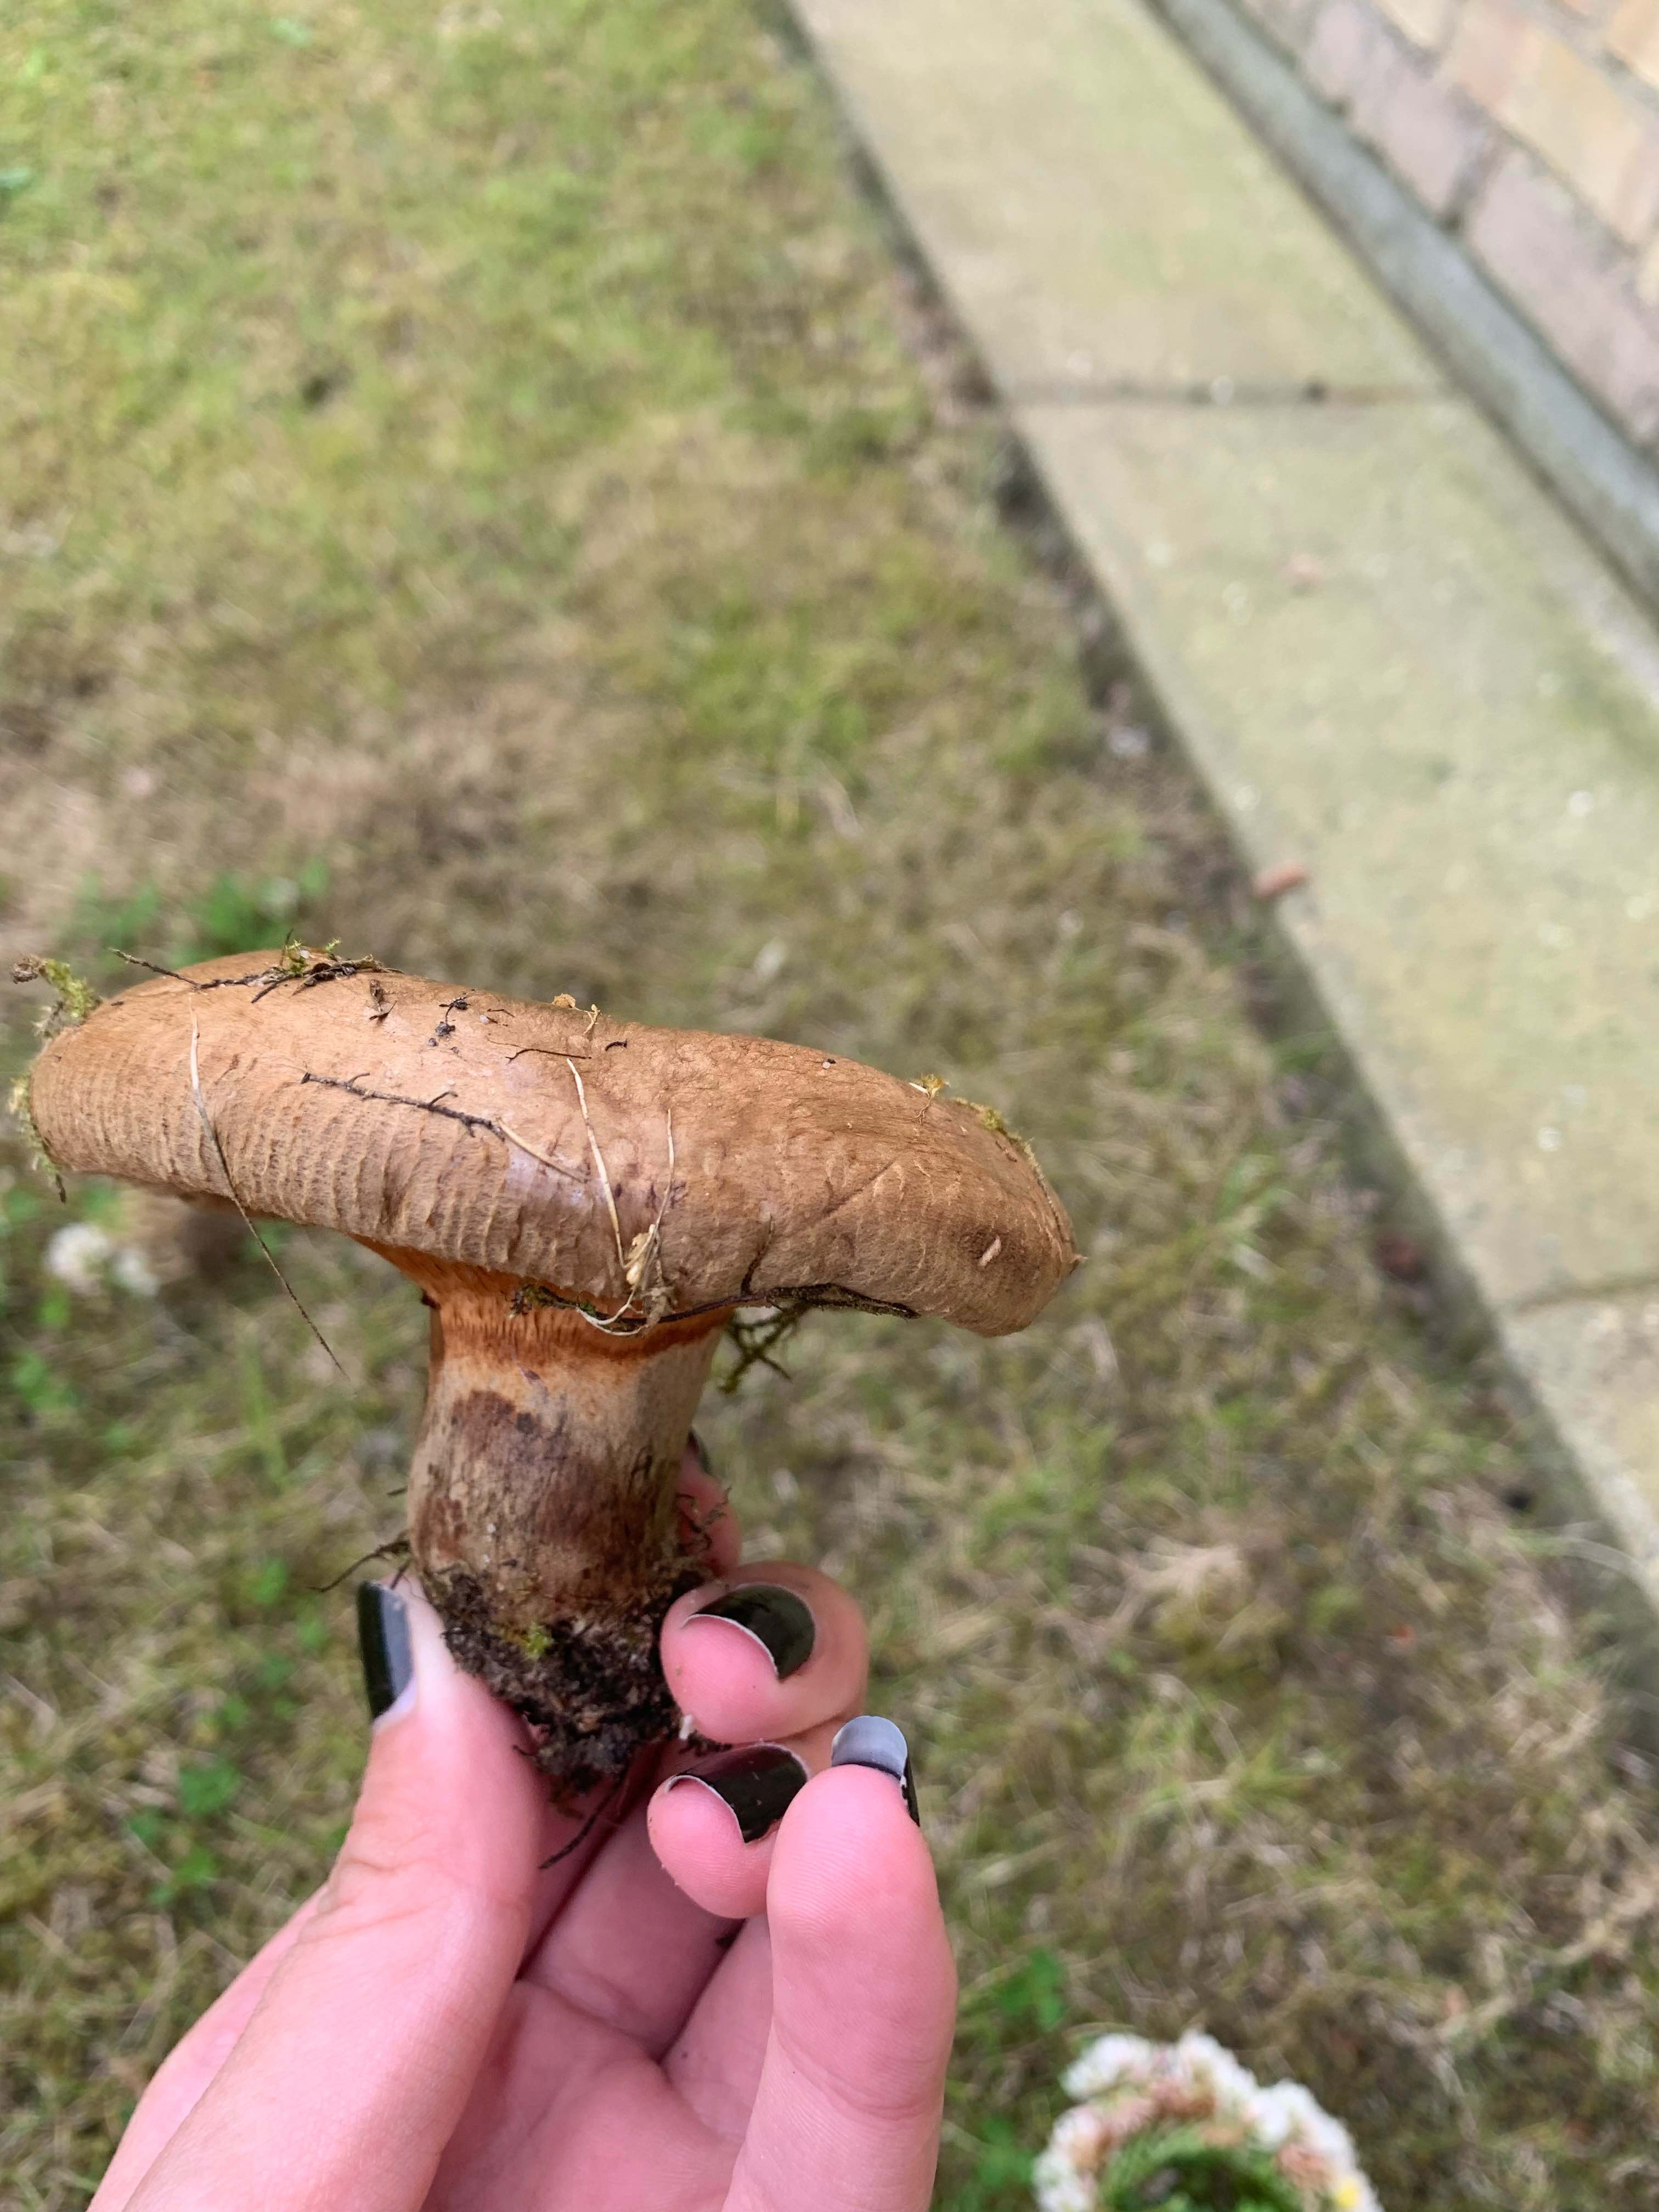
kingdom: Fungi
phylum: Basidiomycota
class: Agaricomycetes
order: Boletales
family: Paxillaceae
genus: Paxillus
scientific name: Paxillus obscurisporus
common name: mahognisporet netbladhat
